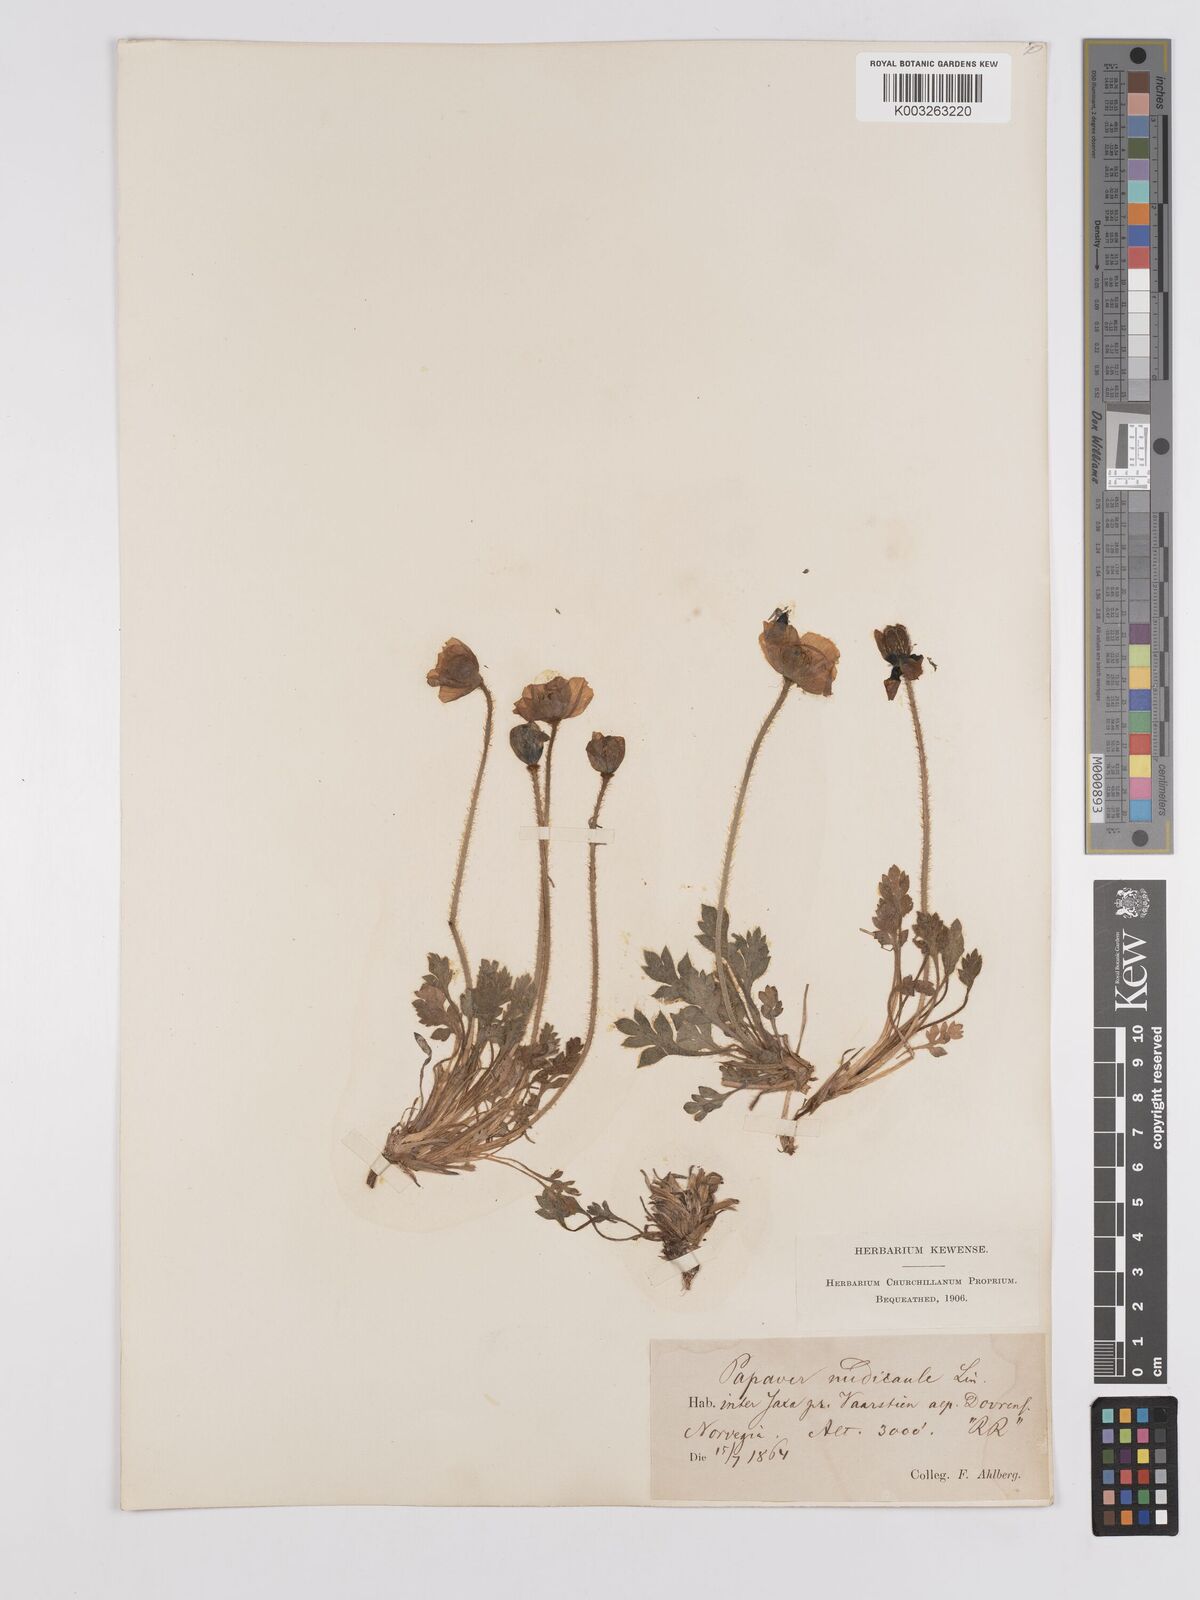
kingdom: Plantae
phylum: Tracheophyta
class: Magnoliopsida
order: Ranunculales
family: Papaveraceae
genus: Papaver
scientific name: Papaver radicatum
